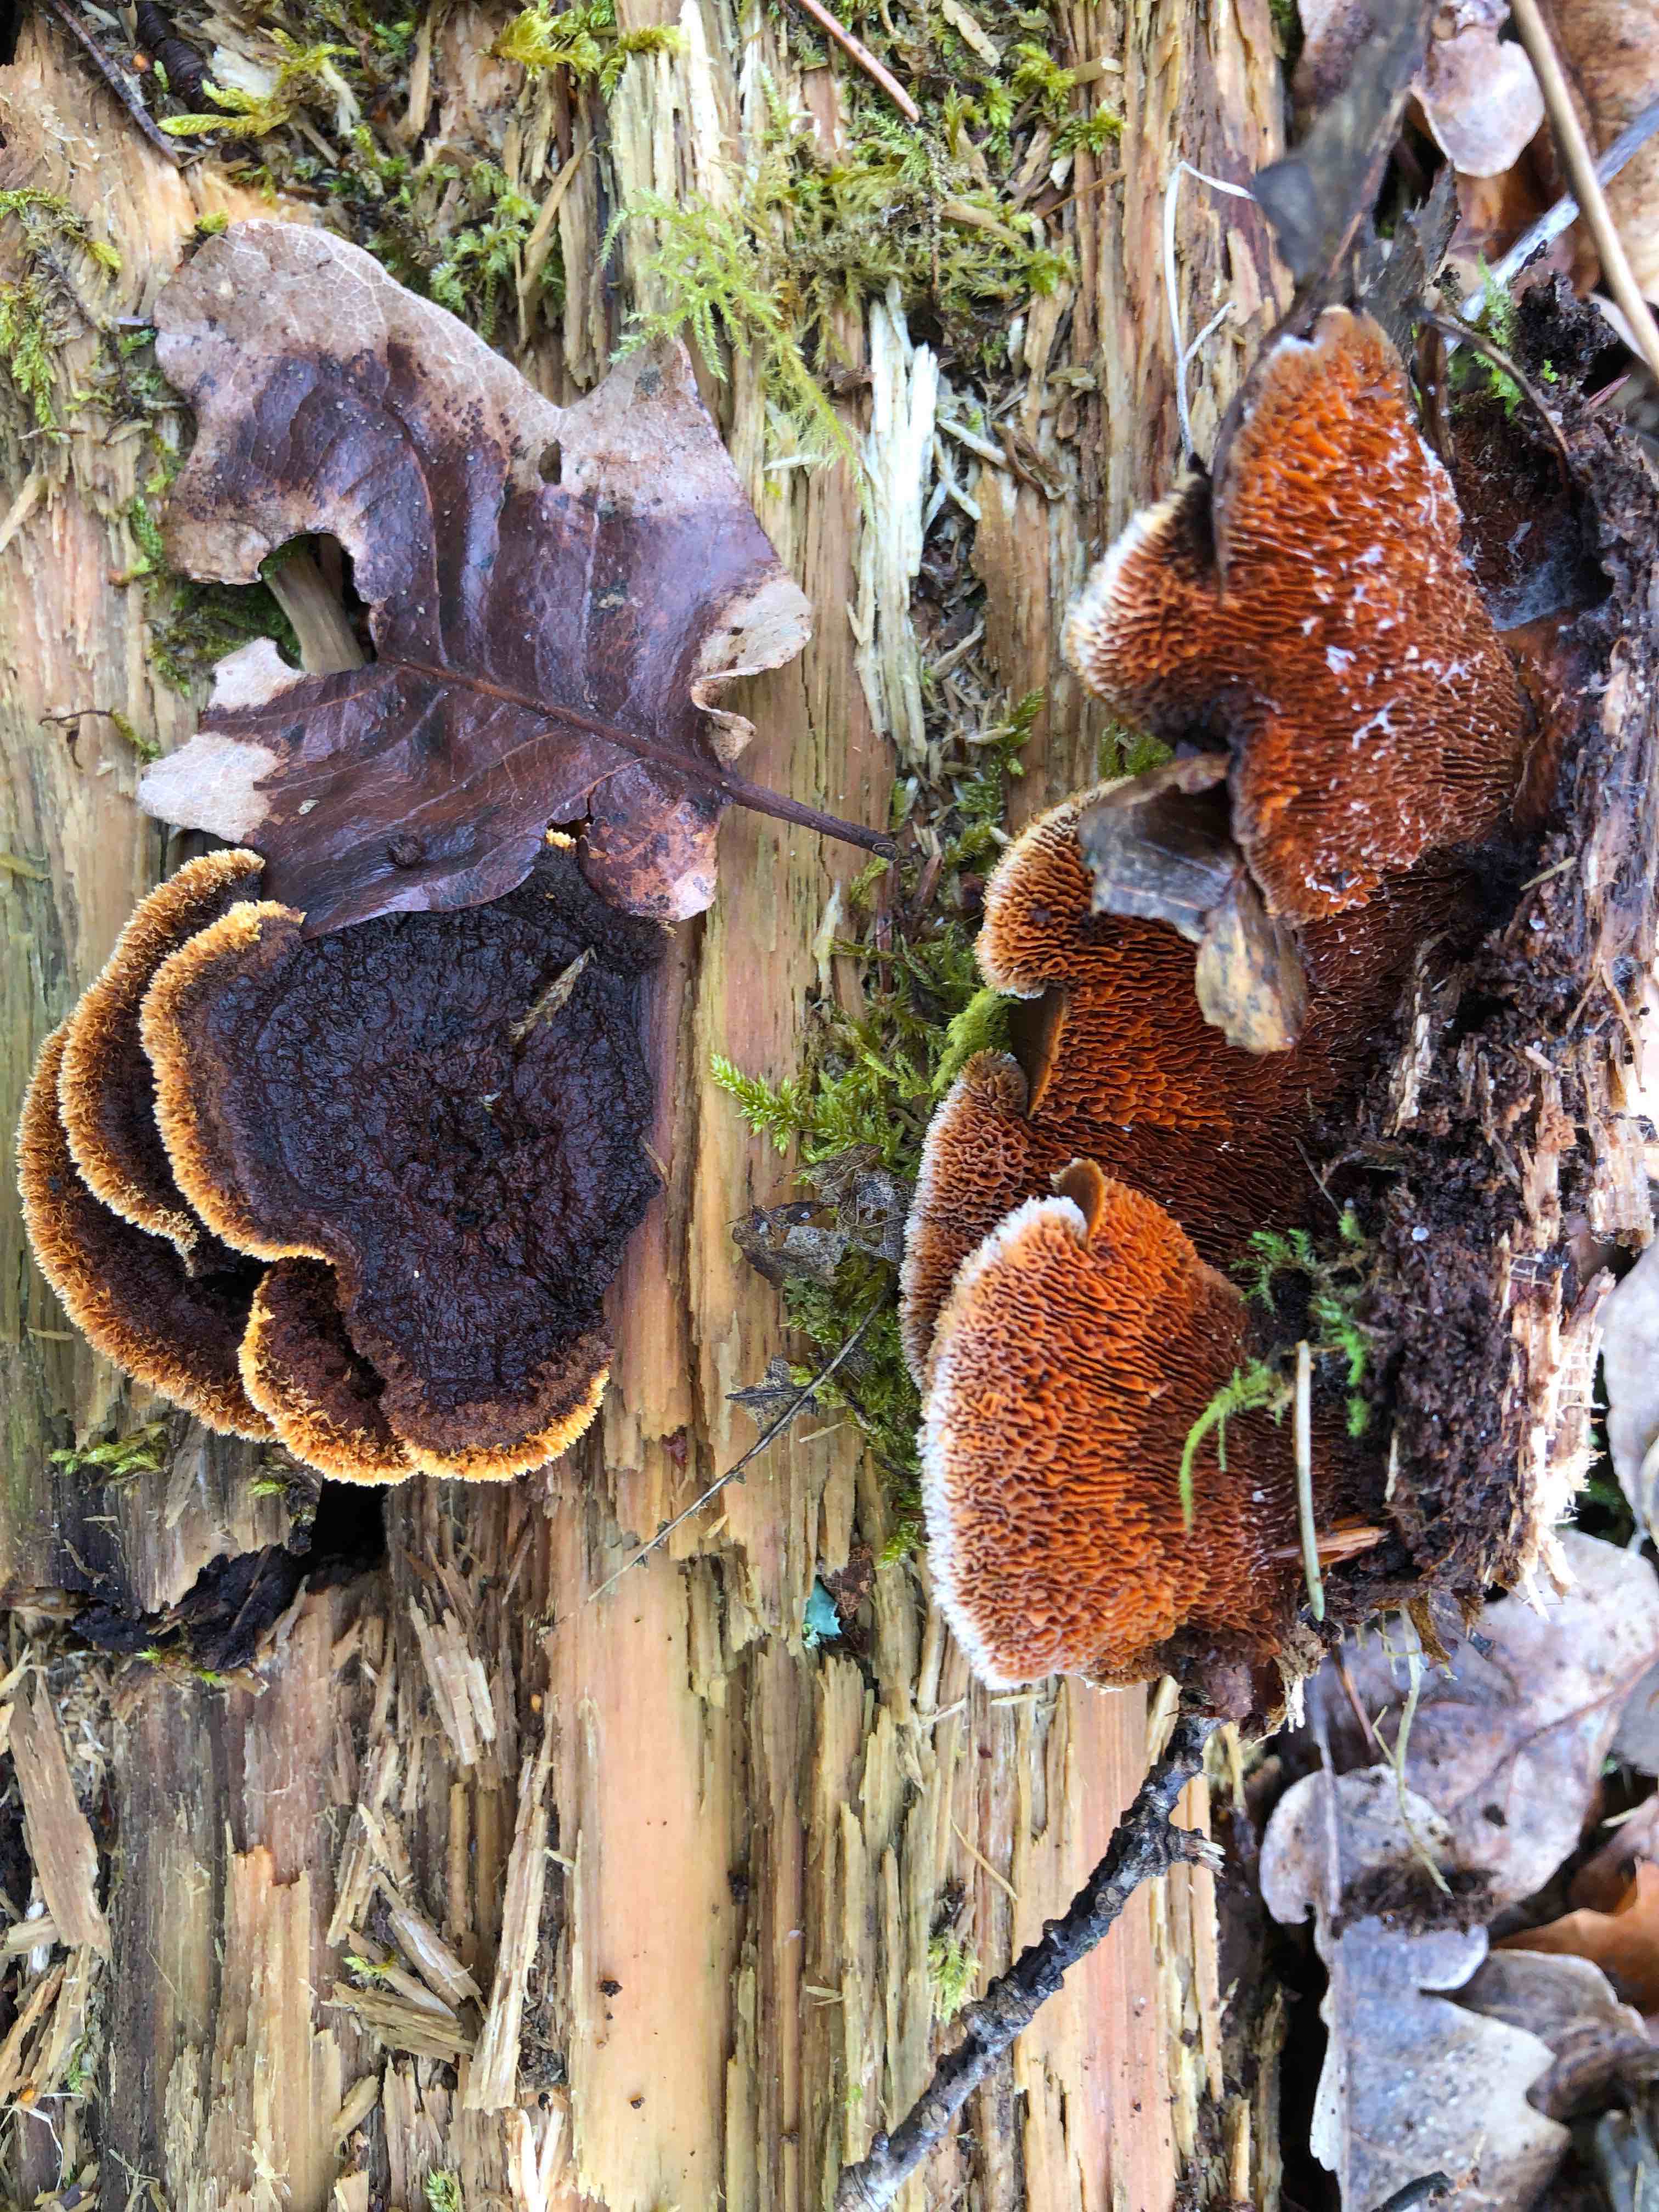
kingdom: Fungi
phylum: Basidiomycota
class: Agaricomycetes
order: Gloeophyllales
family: Gloeophyllaceae
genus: Gloeophyllum
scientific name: Gloeophyllum sepiarium
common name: fyrre-korkhat
